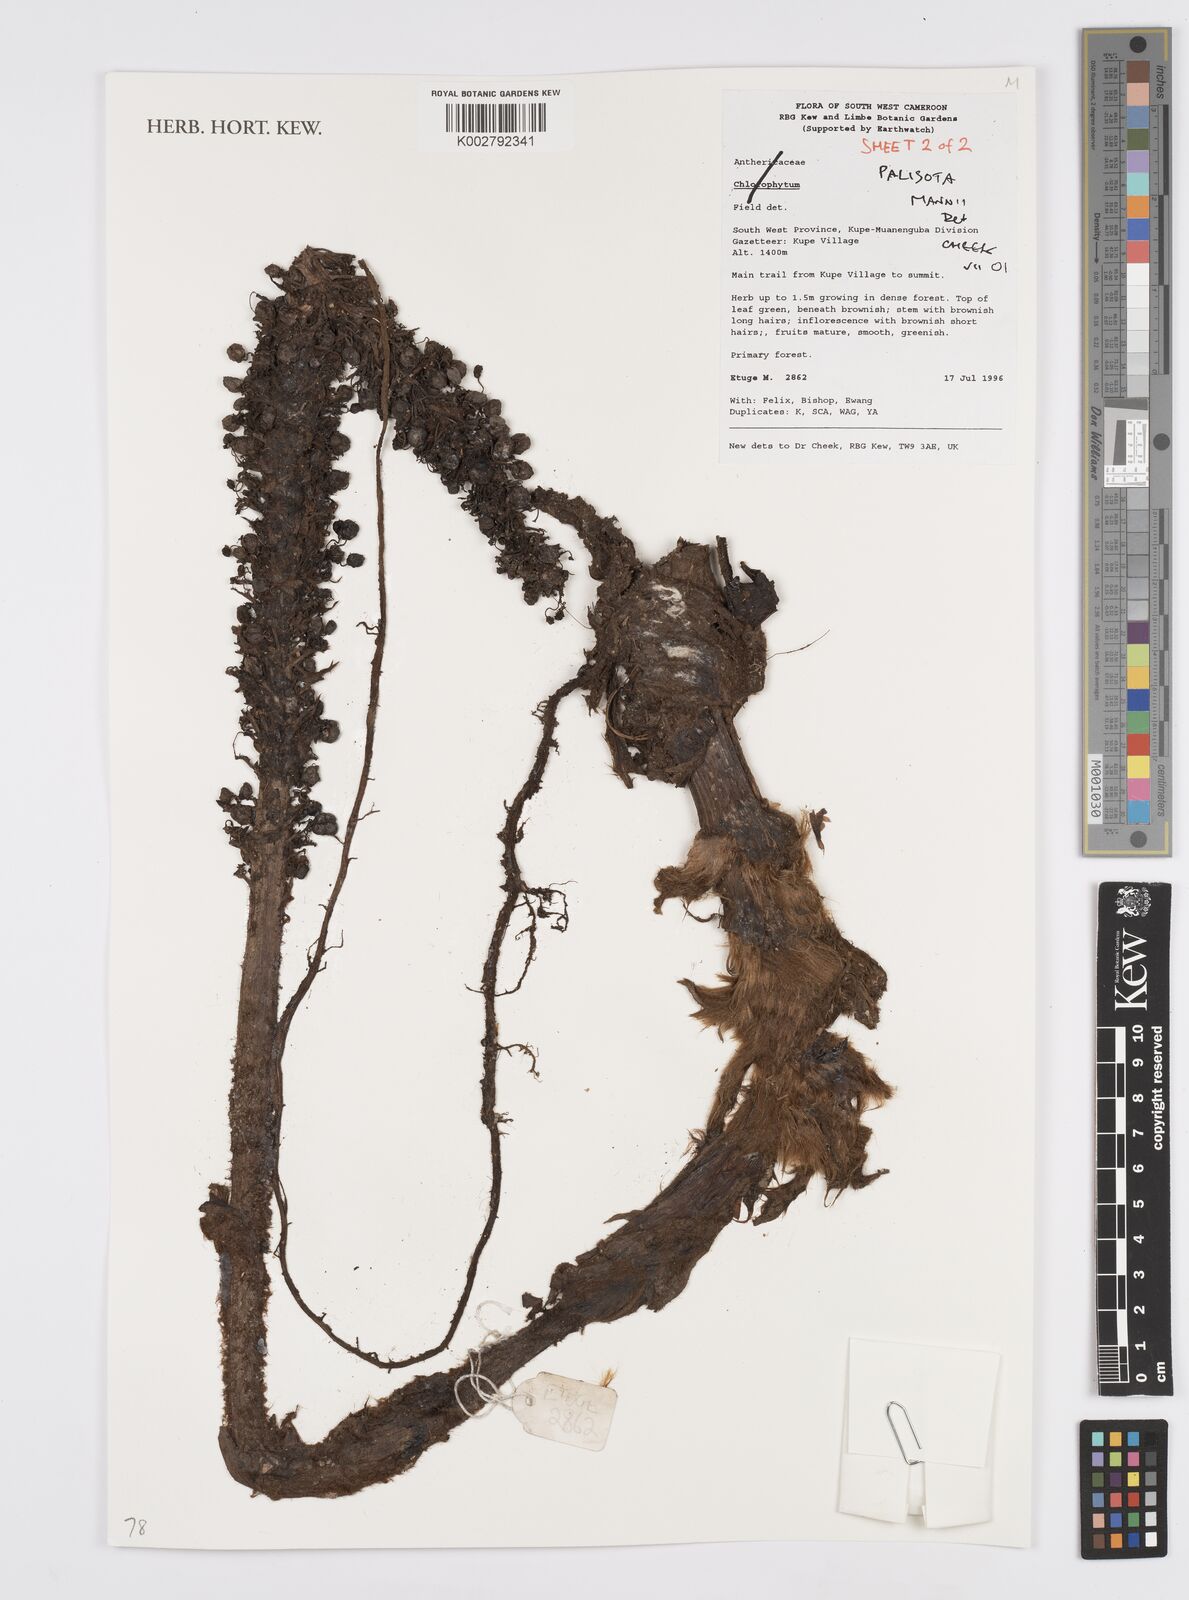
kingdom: Plantae
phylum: Tracheophyta
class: Liliopsida
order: Commelinales
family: Commelinaceae
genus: Palisota
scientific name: Palisota mannii
